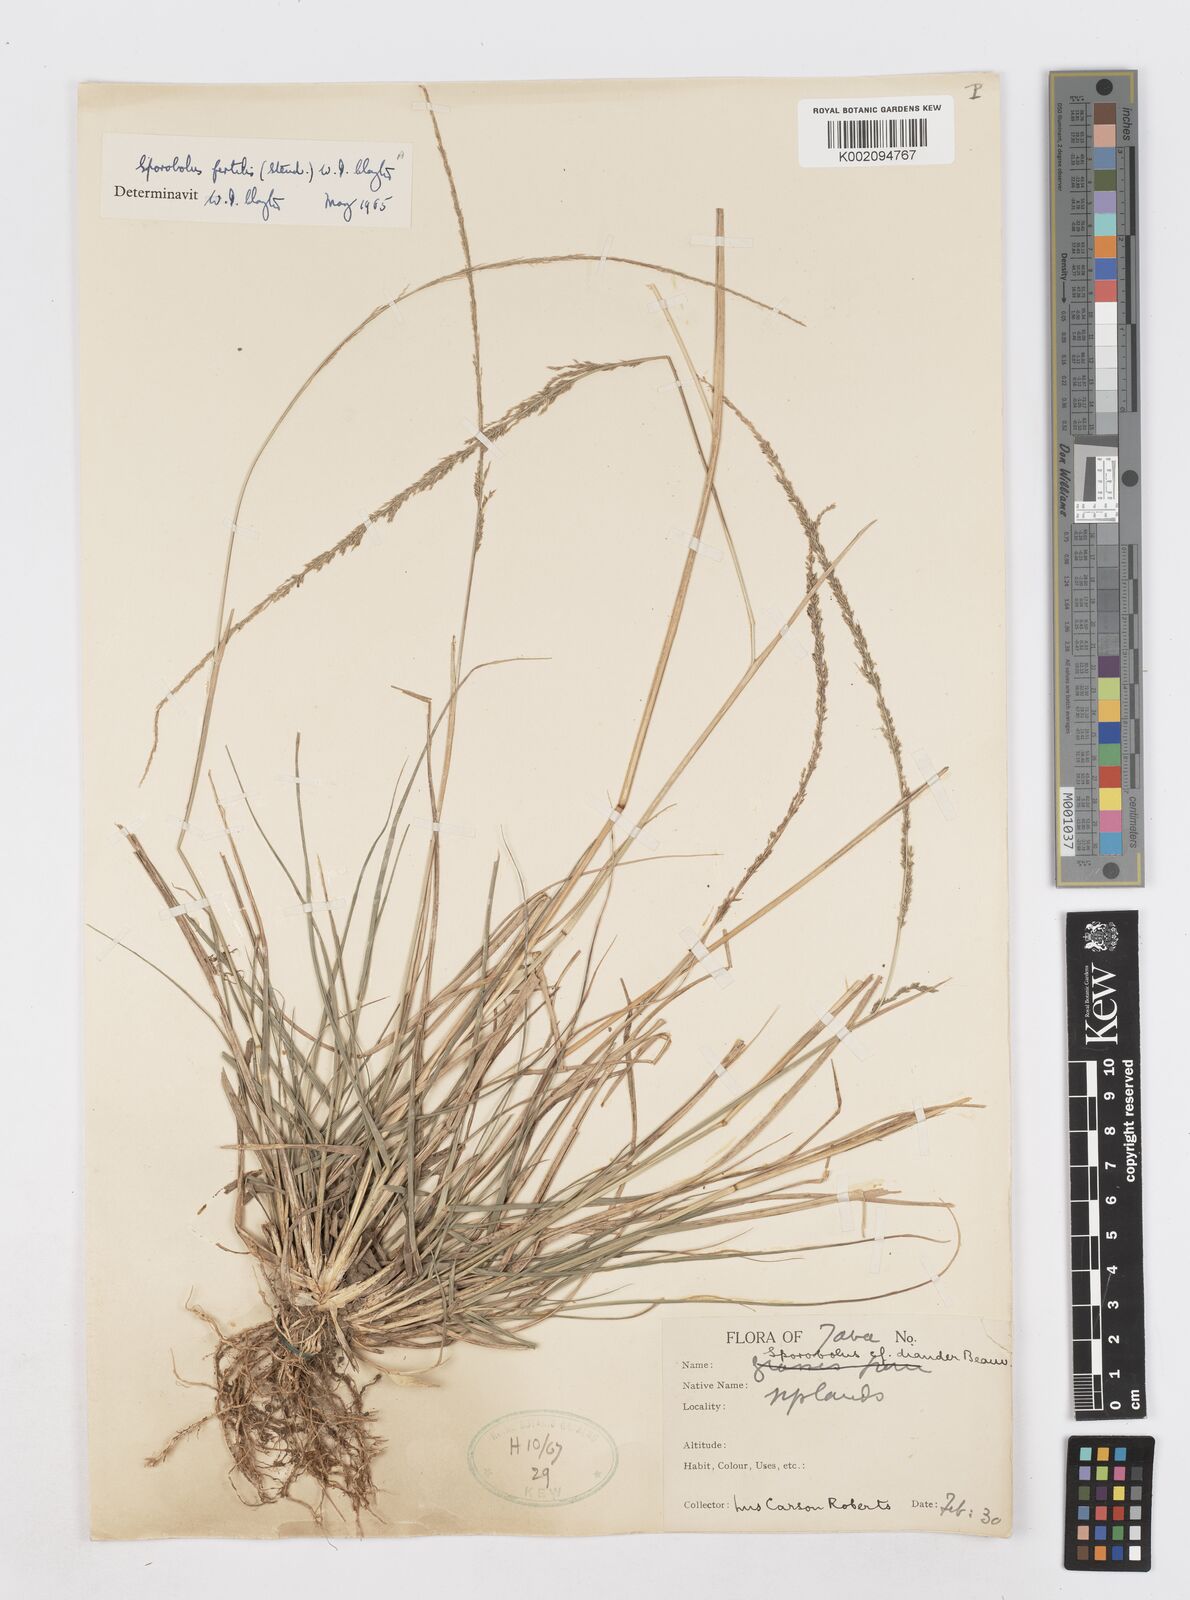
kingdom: Plantae
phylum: Tracheophyta
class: Liliopsida
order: Poales
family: Poaceae
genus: Sporobolus
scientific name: Sporobolus fertilis
